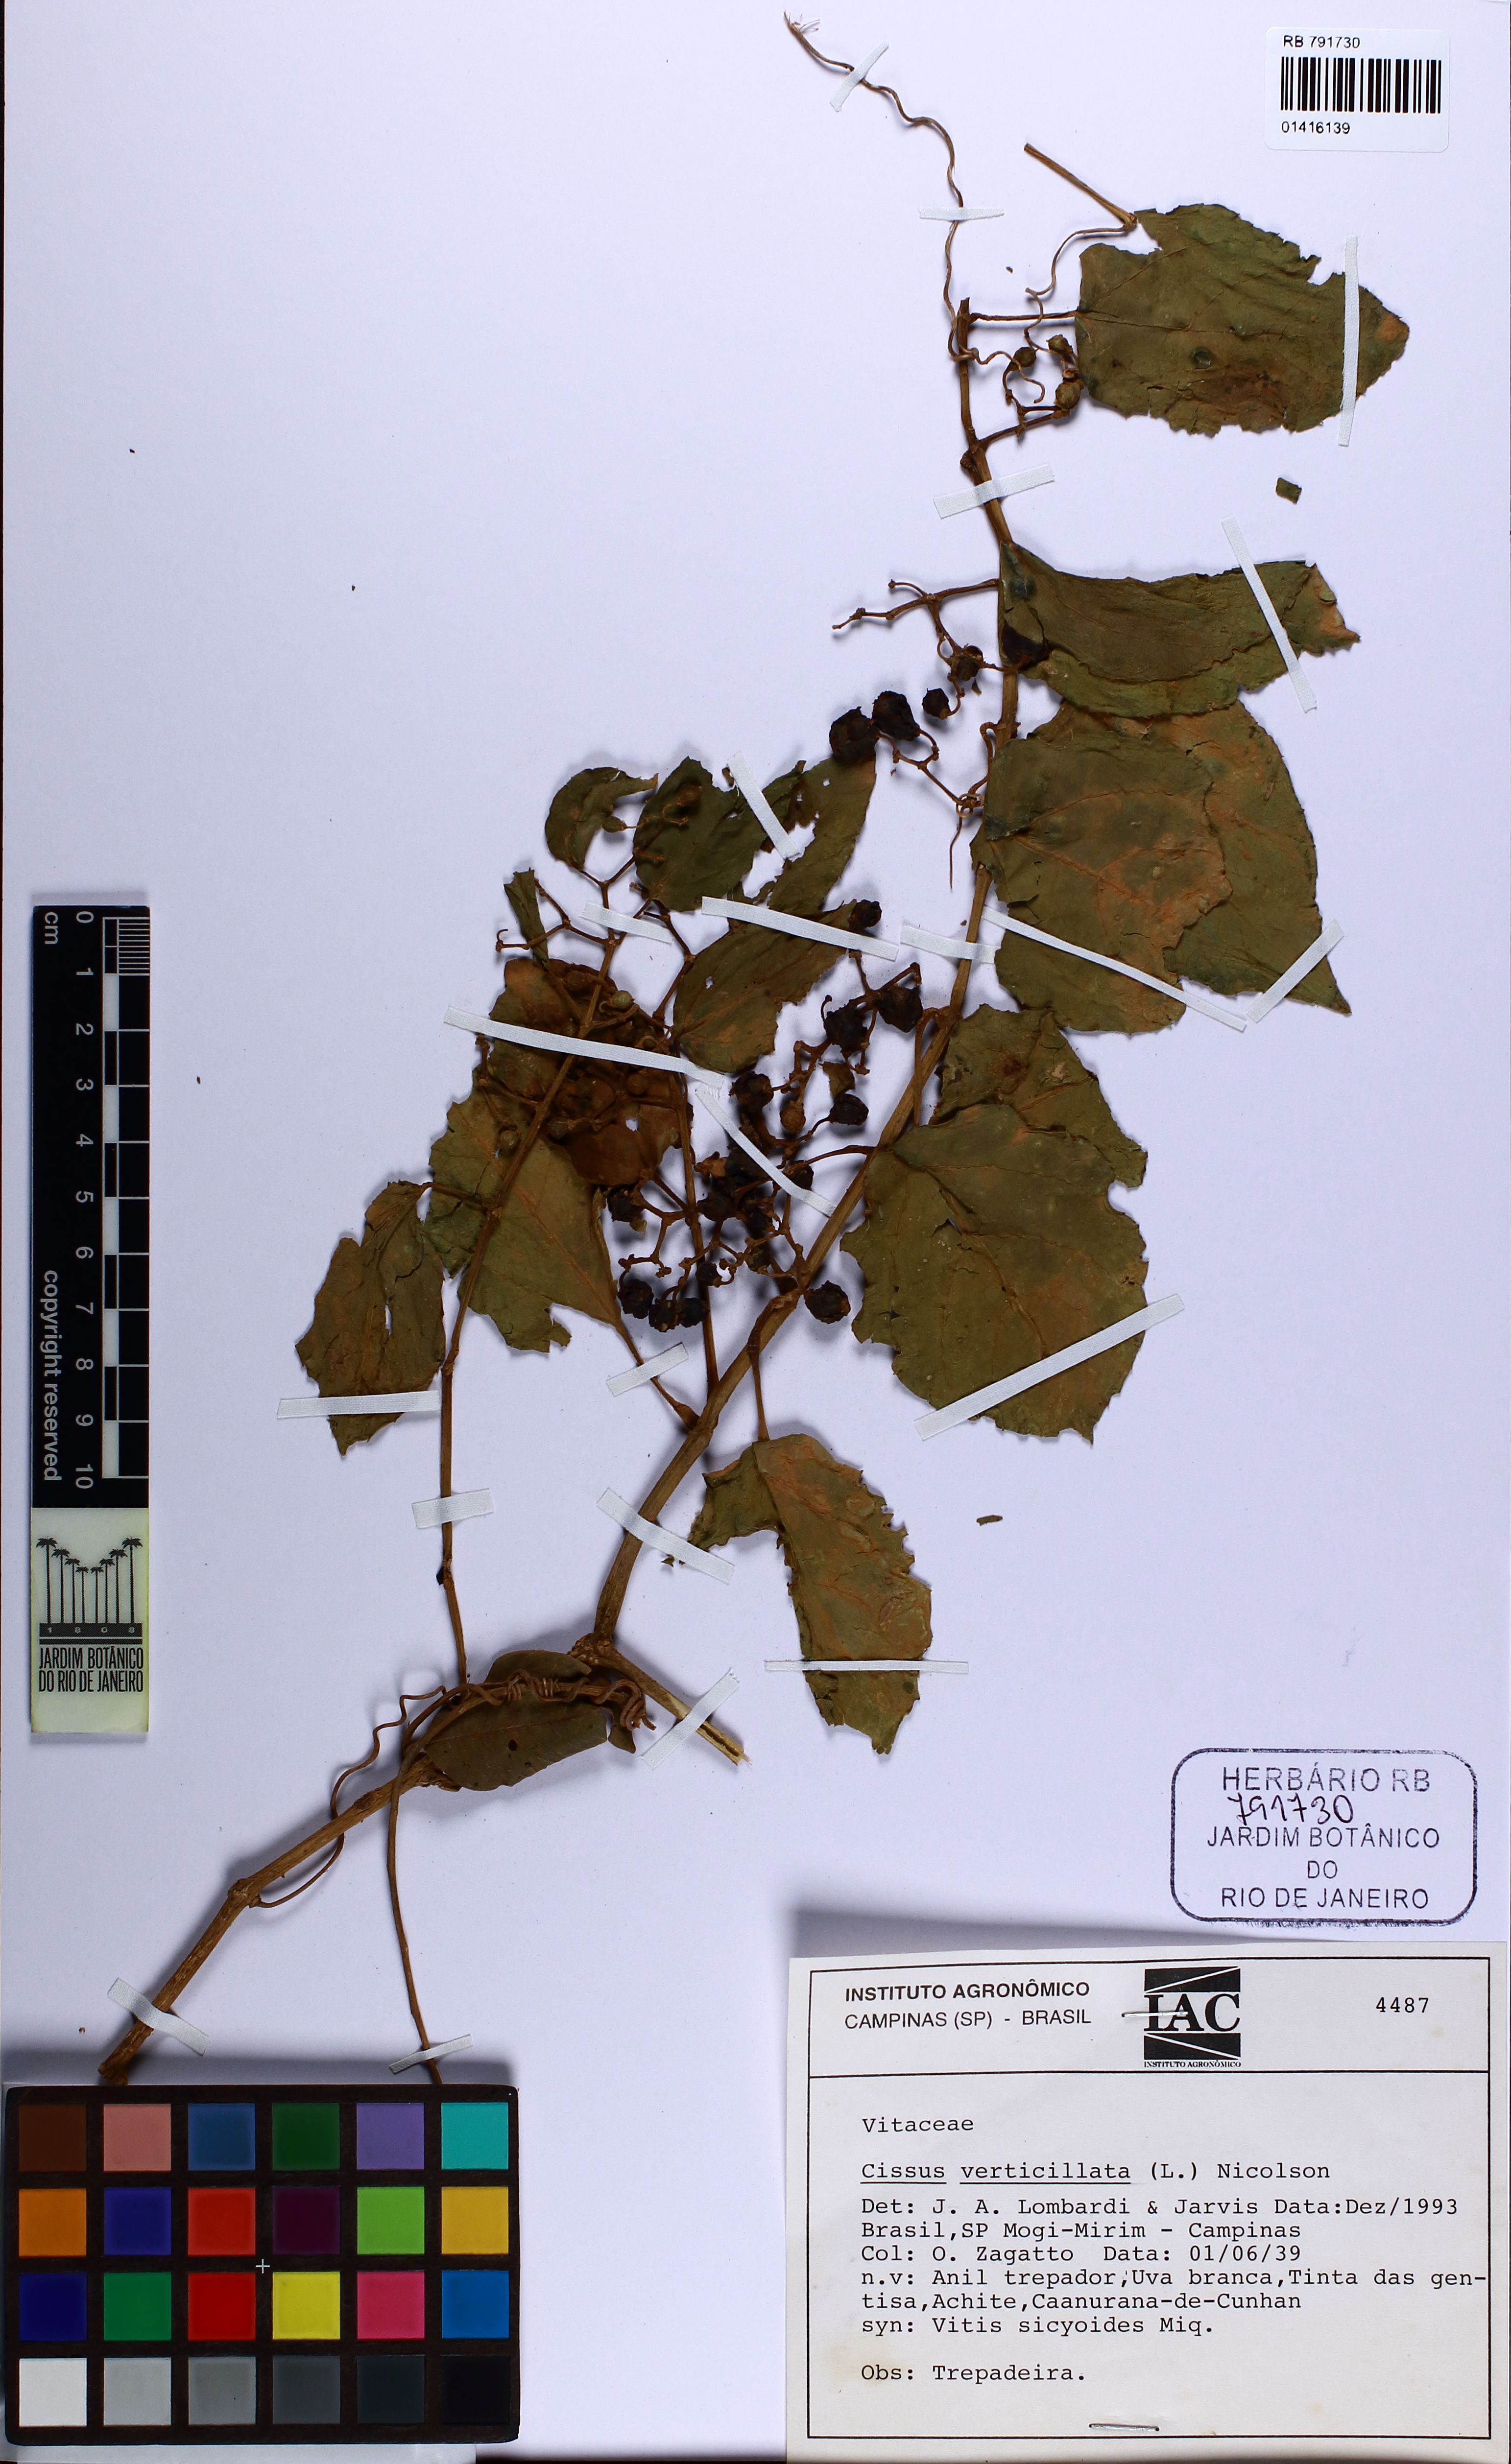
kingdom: Plantae
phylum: Tracheophyta
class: Magnoliopsida
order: Vitales
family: Vitaceae
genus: Cissus
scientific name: Cissus verticillata
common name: Princess vine
